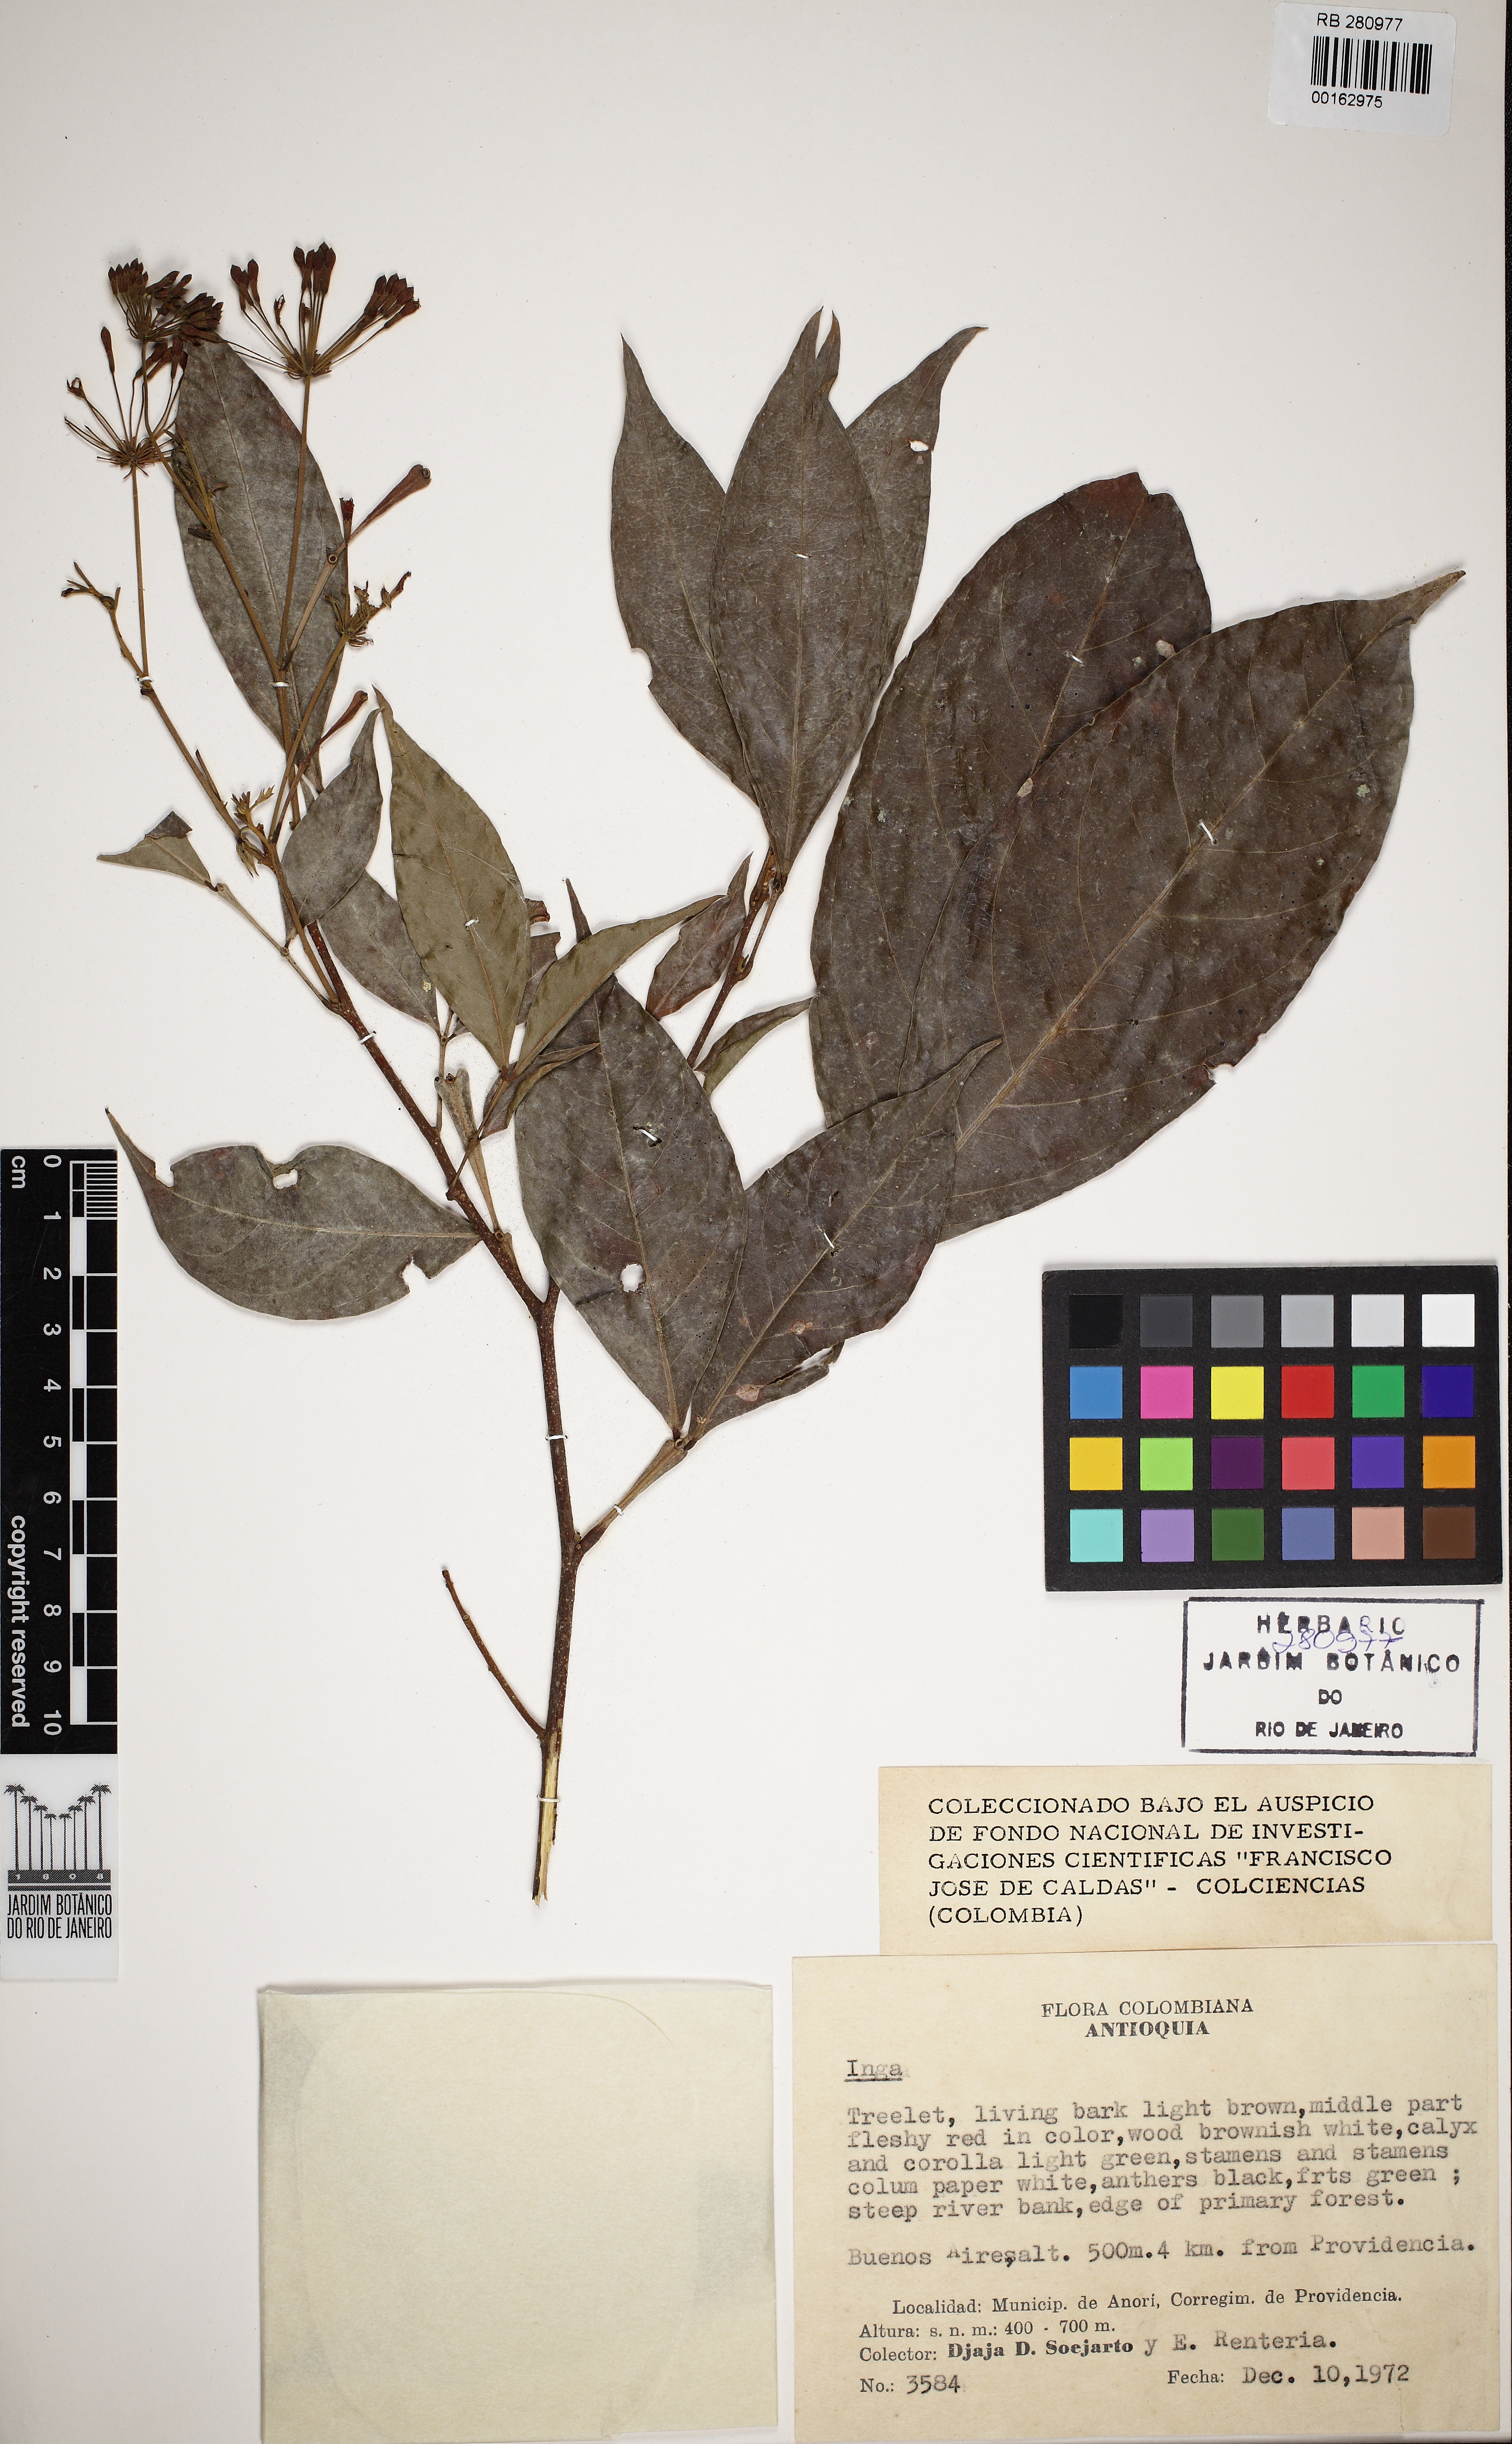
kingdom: Plantae
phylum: Tracheophyta
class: Magnoliopsida
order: Fabales
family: Fabaceae
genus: Inga
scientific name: Inga
